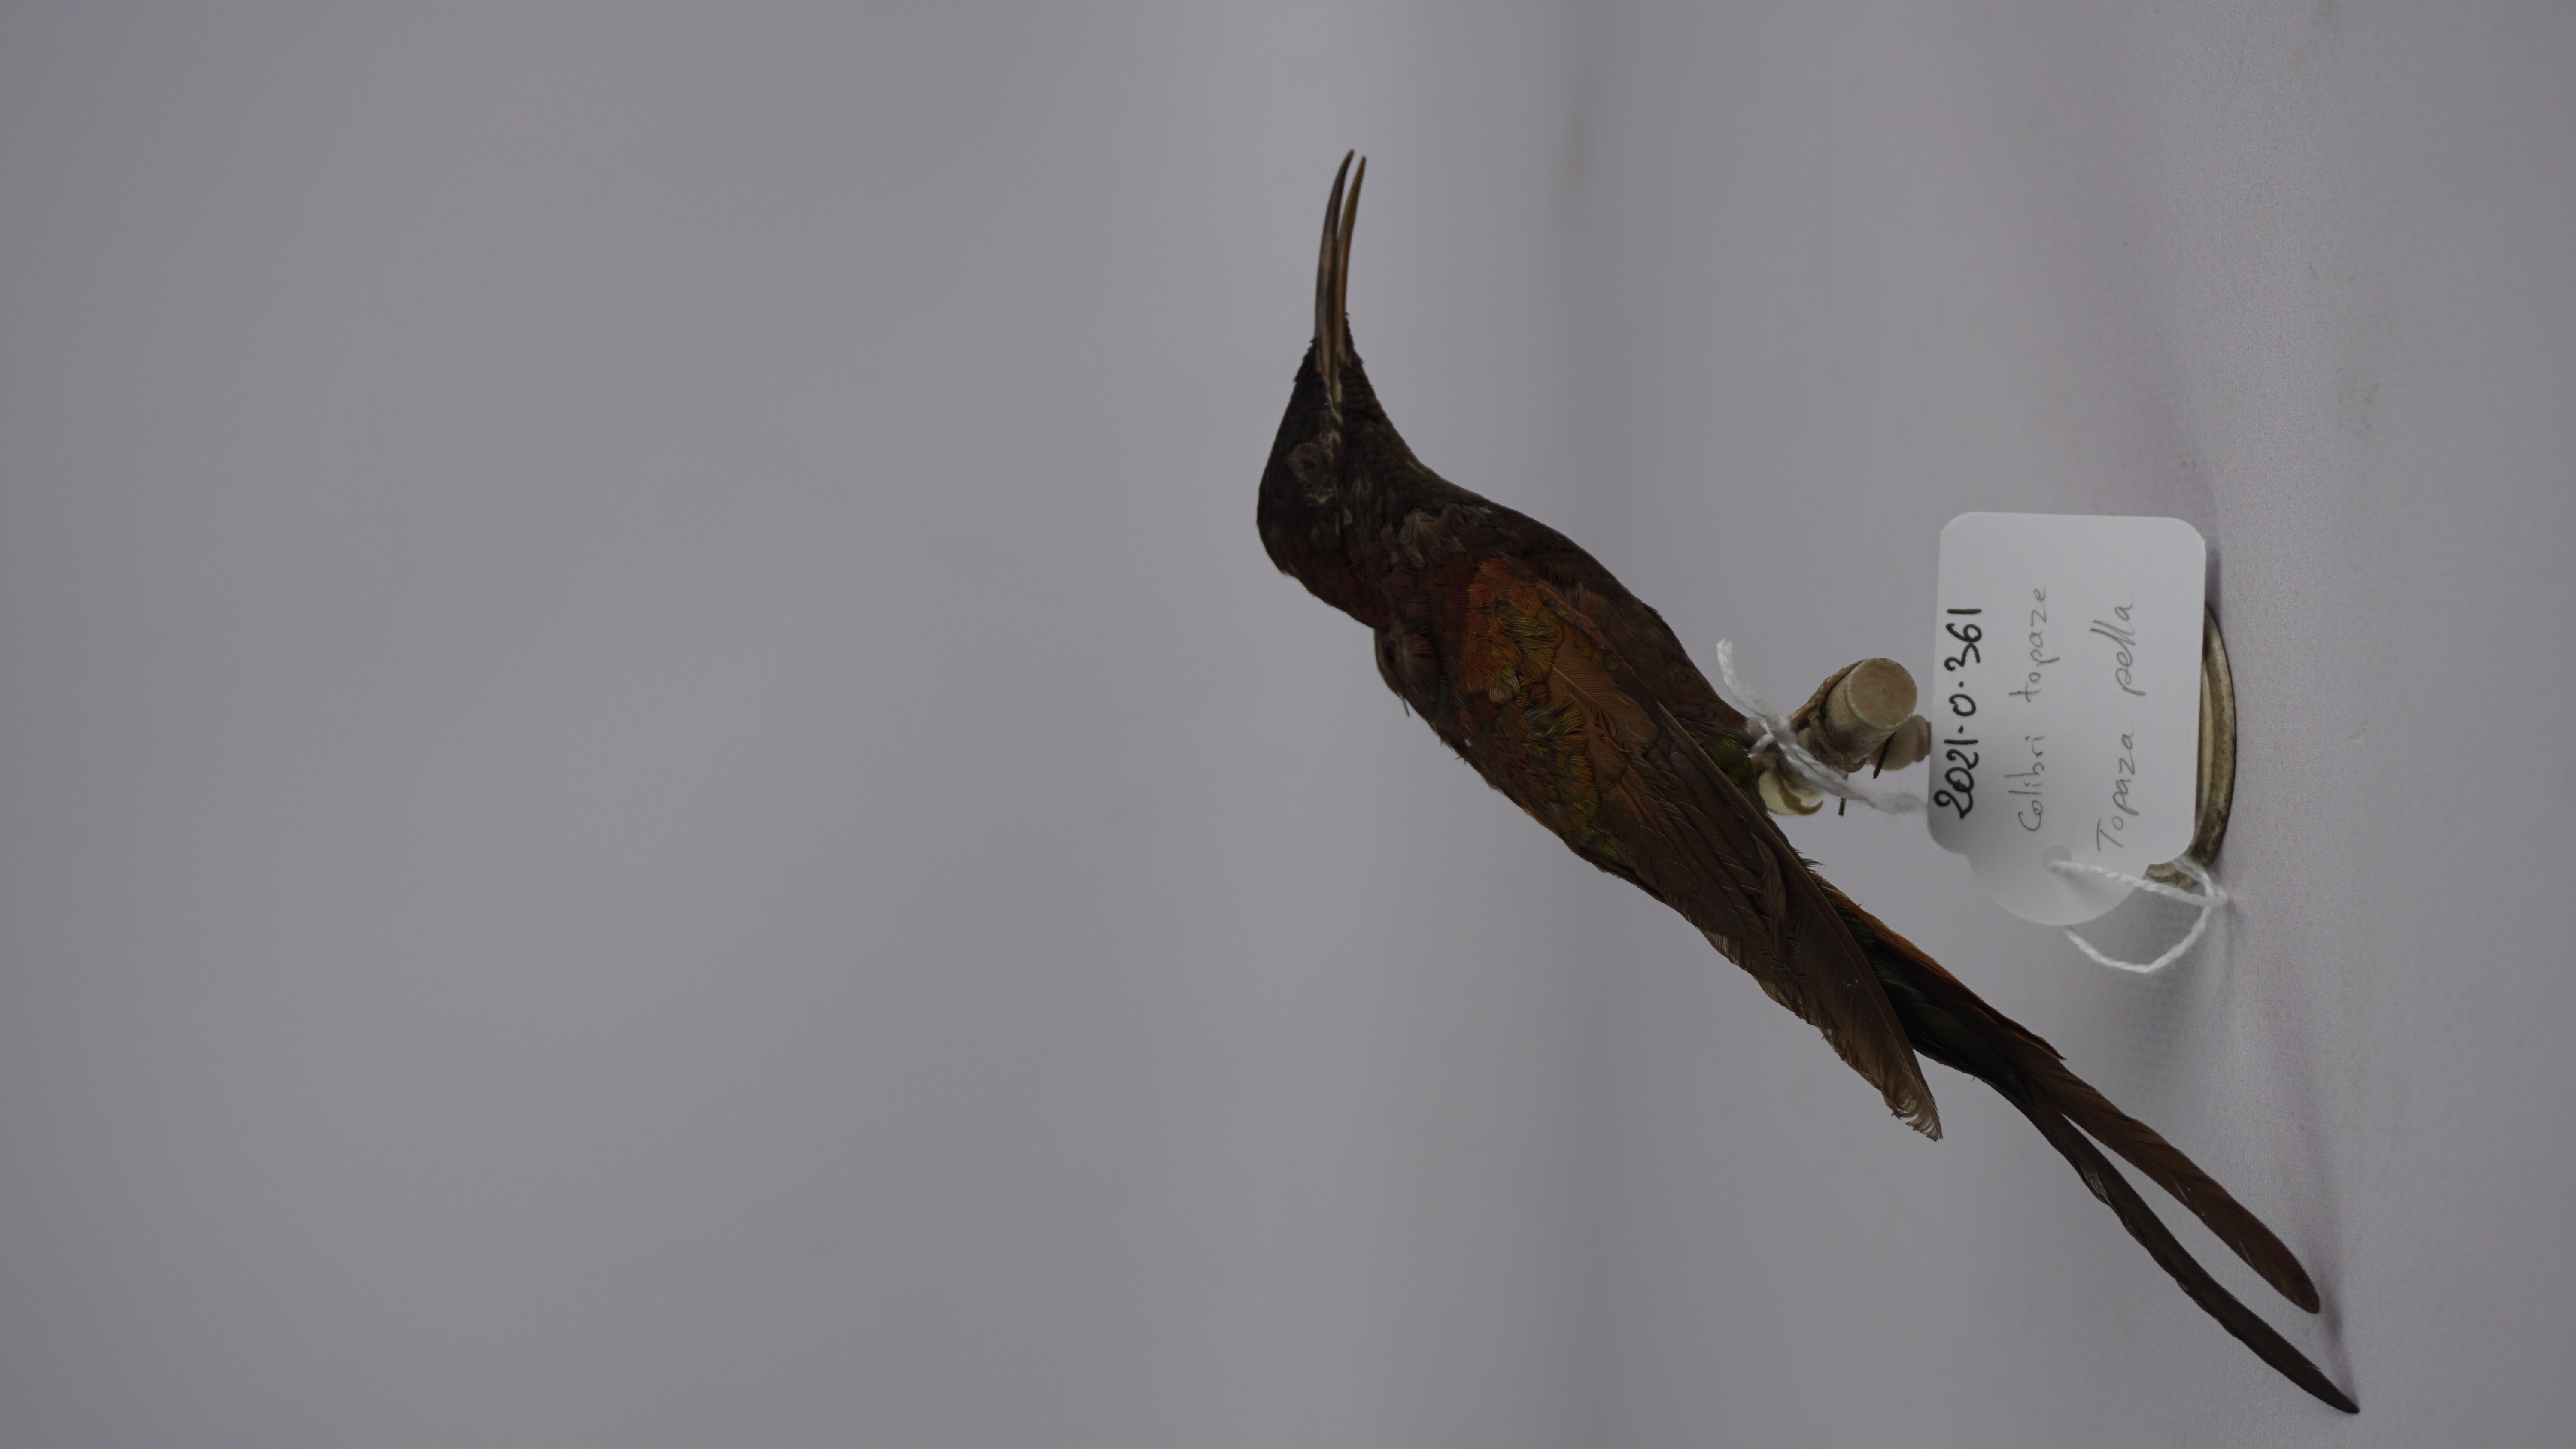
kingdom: Animalia
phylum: Chordata
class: Aves
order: Apodiformes
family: Trochilidae
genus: Topaza
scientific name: Topaza pella
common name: Crimson topaz
